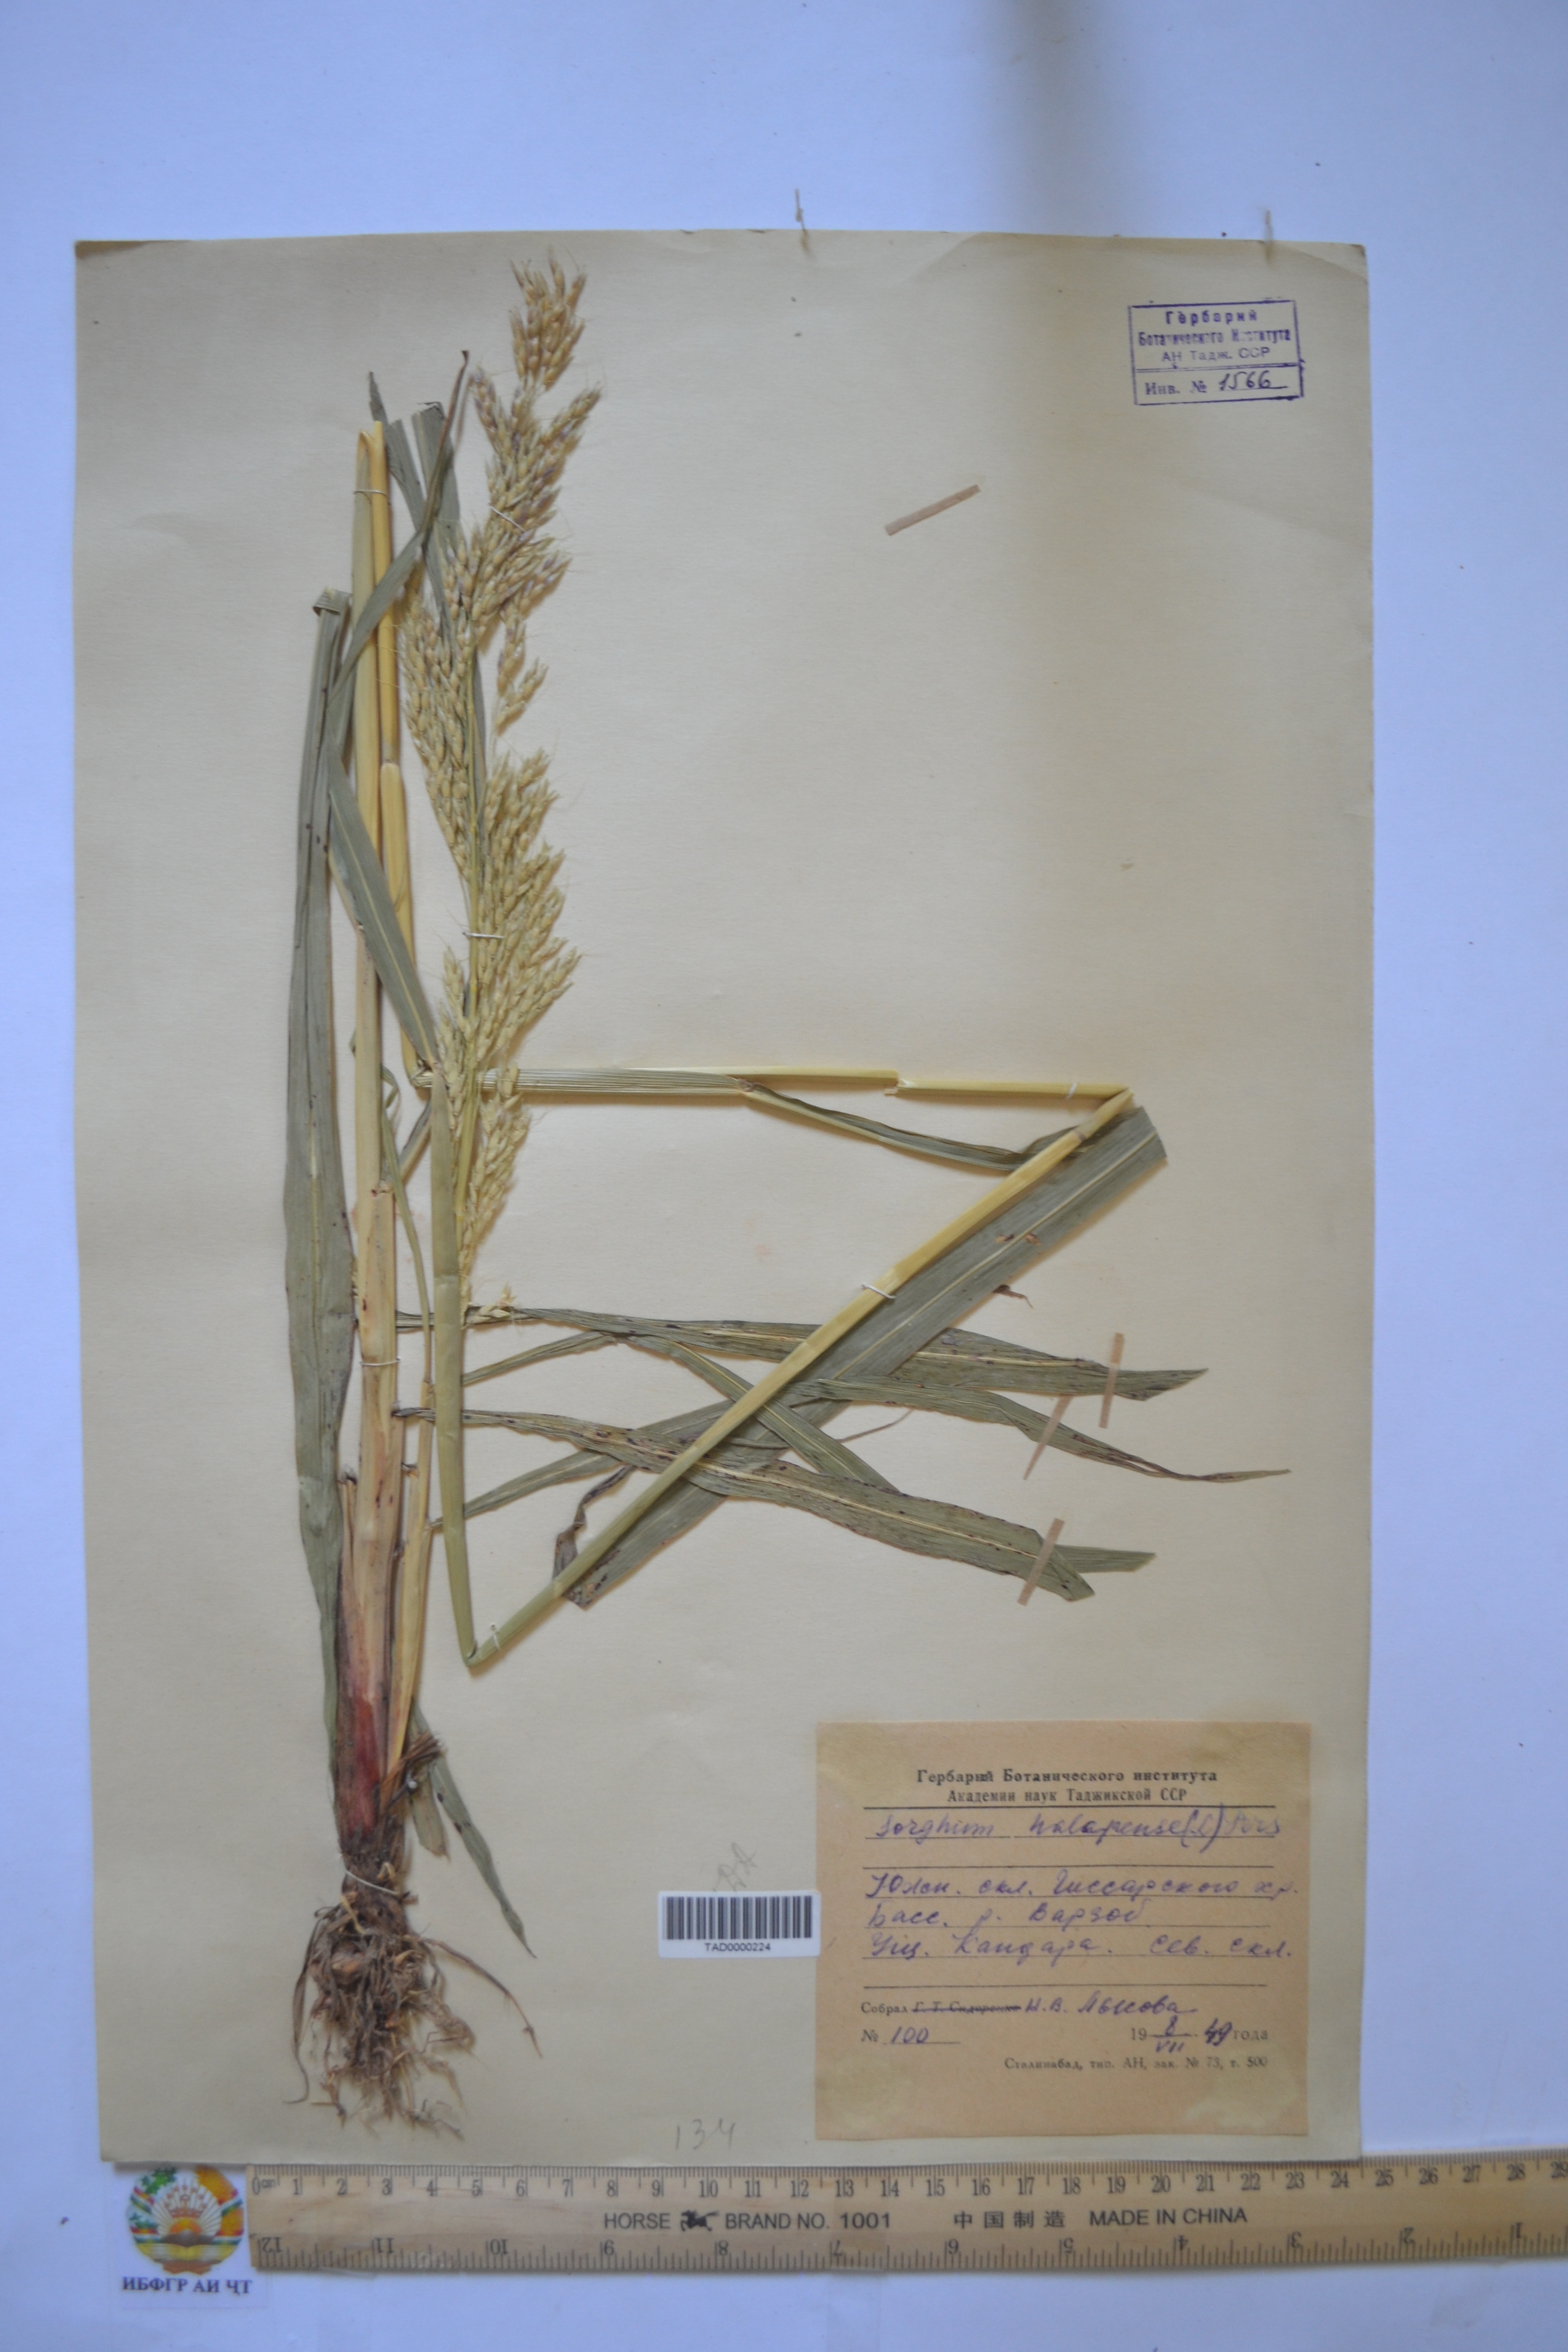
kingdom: Plantae
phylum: Tracheophyta
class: Liliopsida
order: Poales
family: Poaceae
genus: Sorghum
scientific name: Sorghum halepense
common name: Johnson-grass
